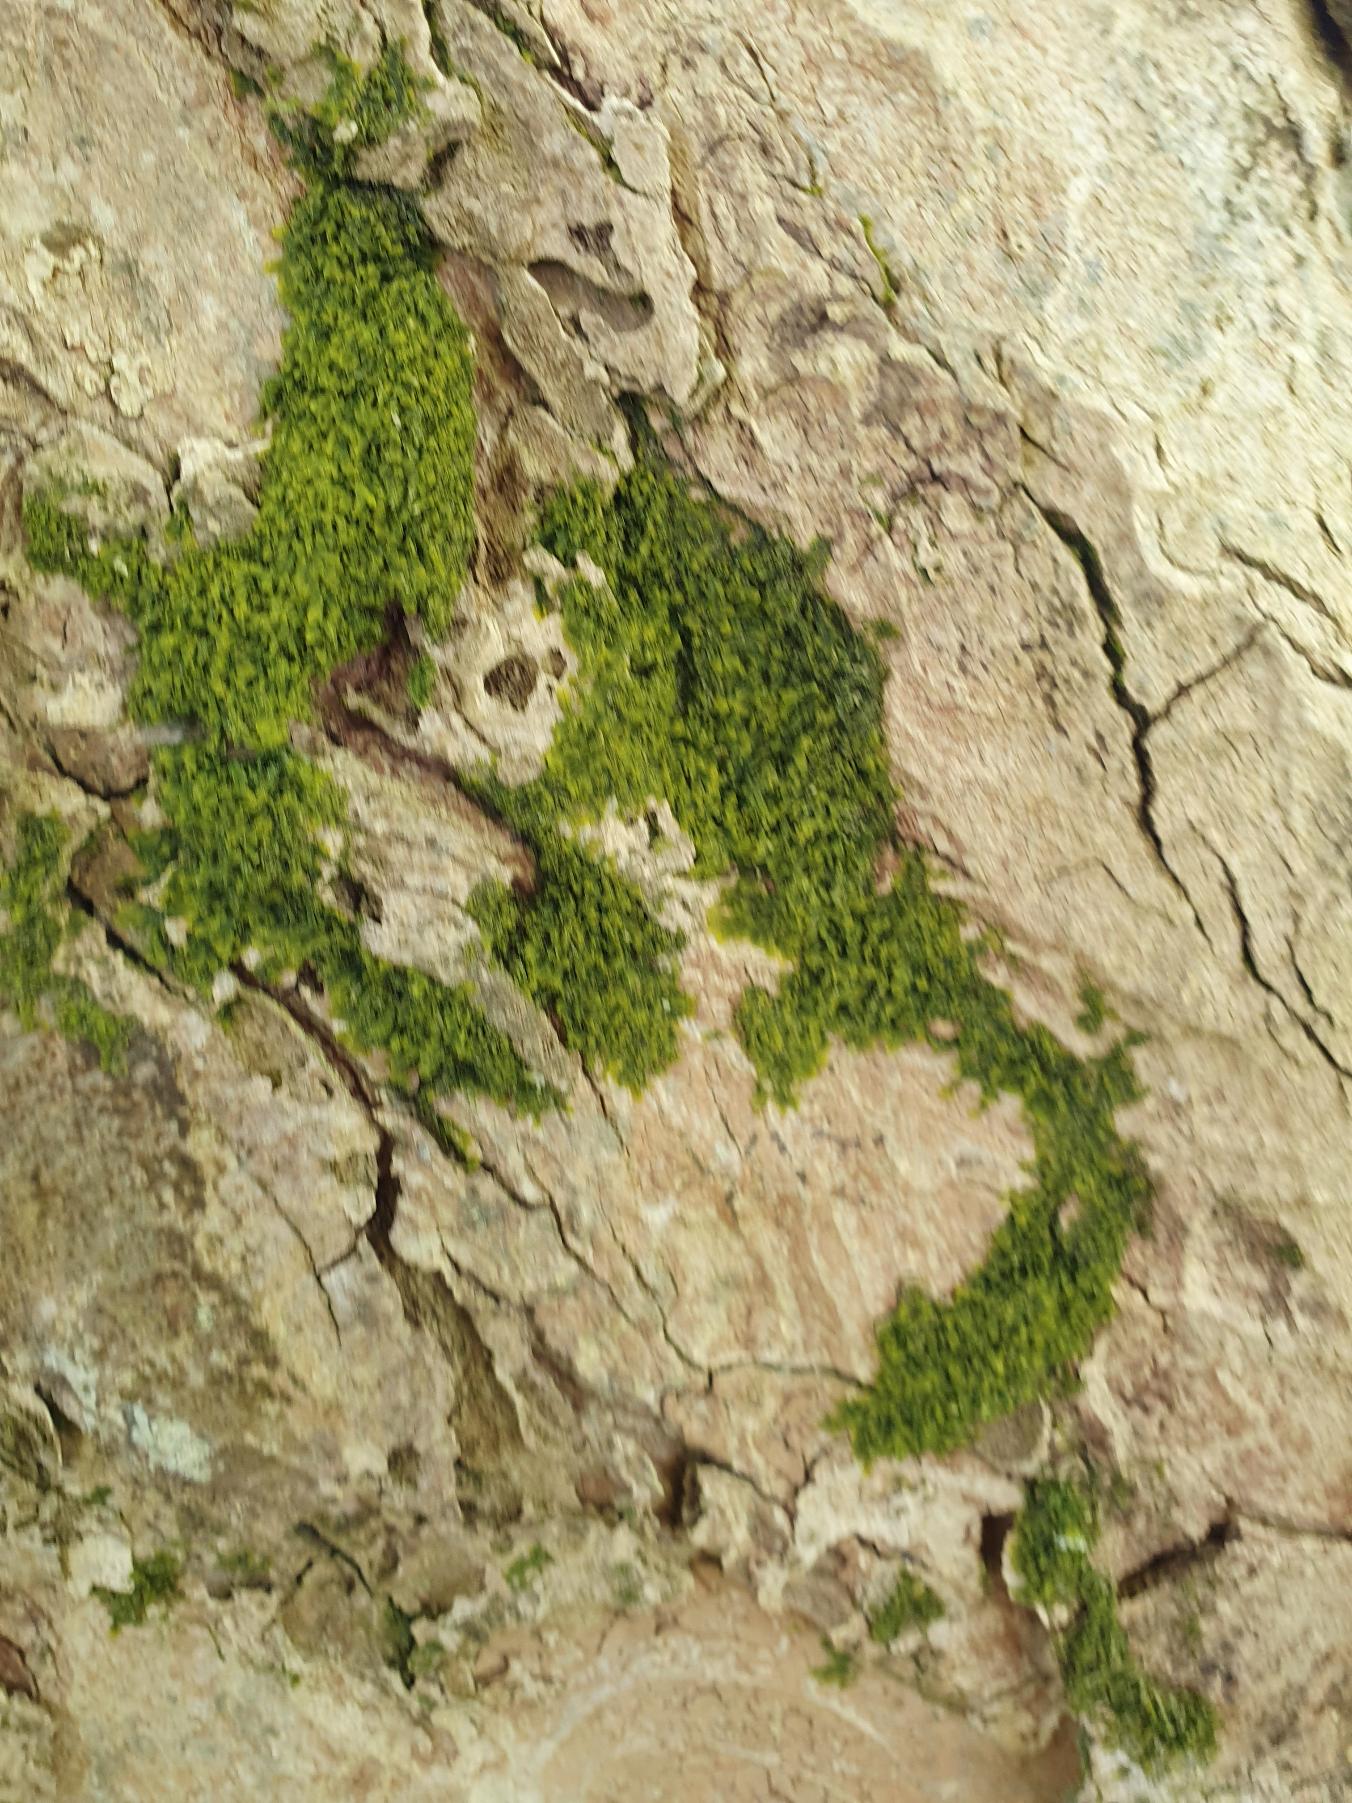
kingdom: Plantae
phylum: Marchantiophyta
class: Jungermanniopsida
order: Metzgeriales
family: Metzgeriaceae
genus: Metzgeria
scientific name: Metzgeria furcata
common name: Almindelig gaffelløv
